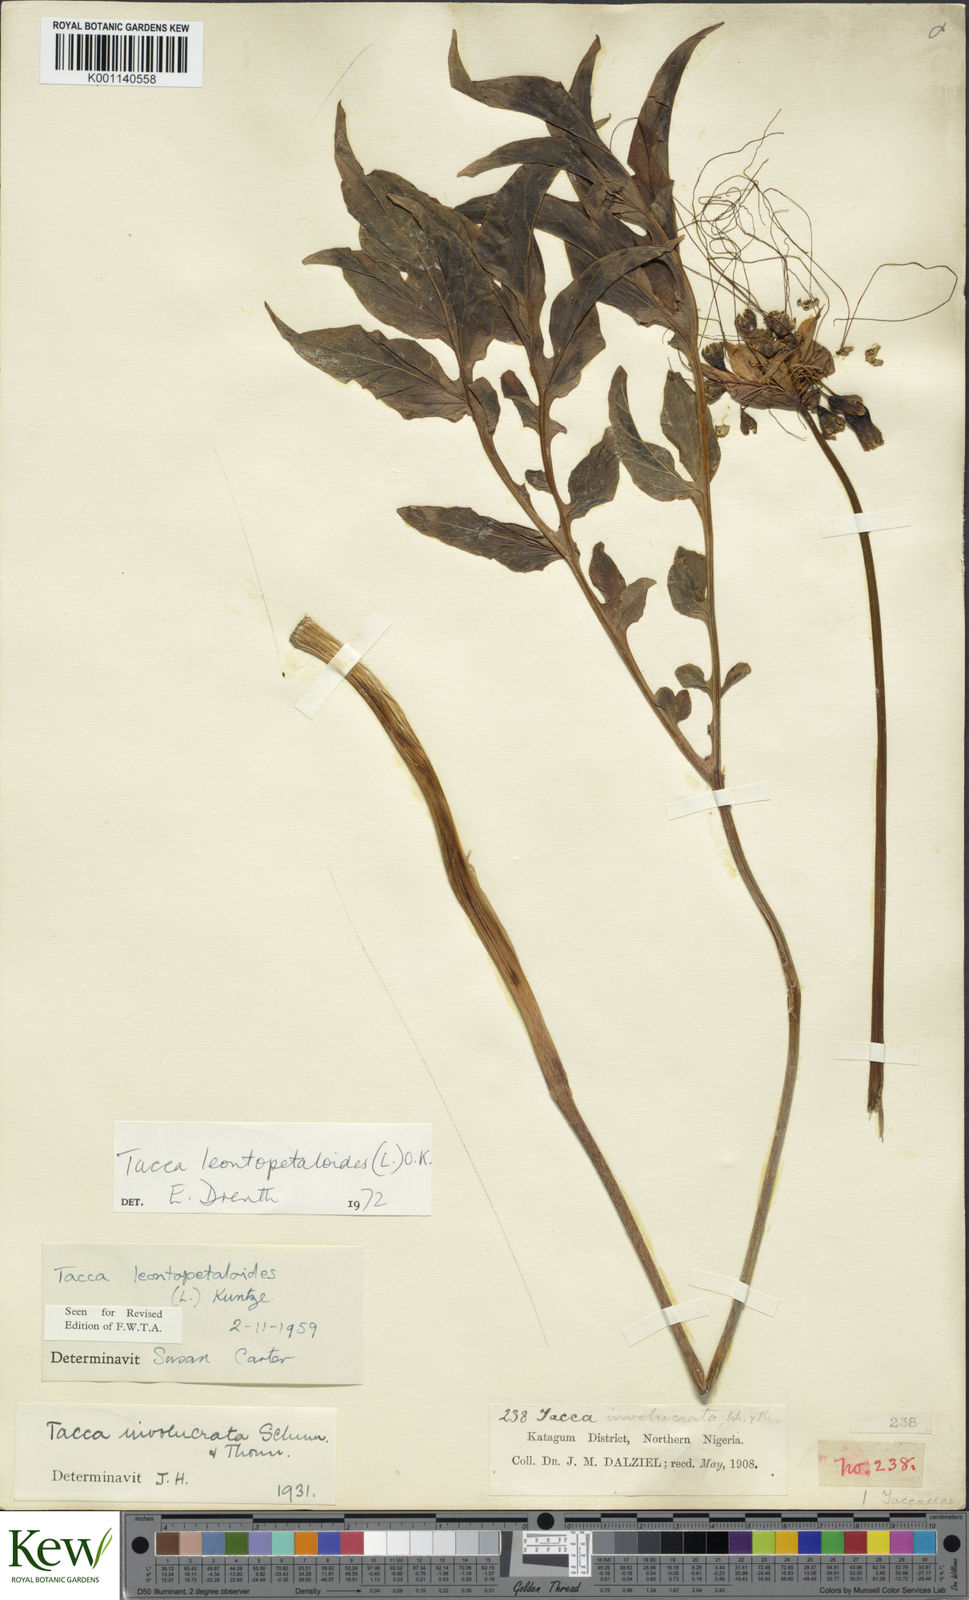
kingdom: Plantae
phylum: Tracheophyta
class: Liliopsida
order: Dioscoreales
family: Dioscoreaceae
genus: Tacca
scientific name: Tacca leontopetaloides
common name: Arrowroot
